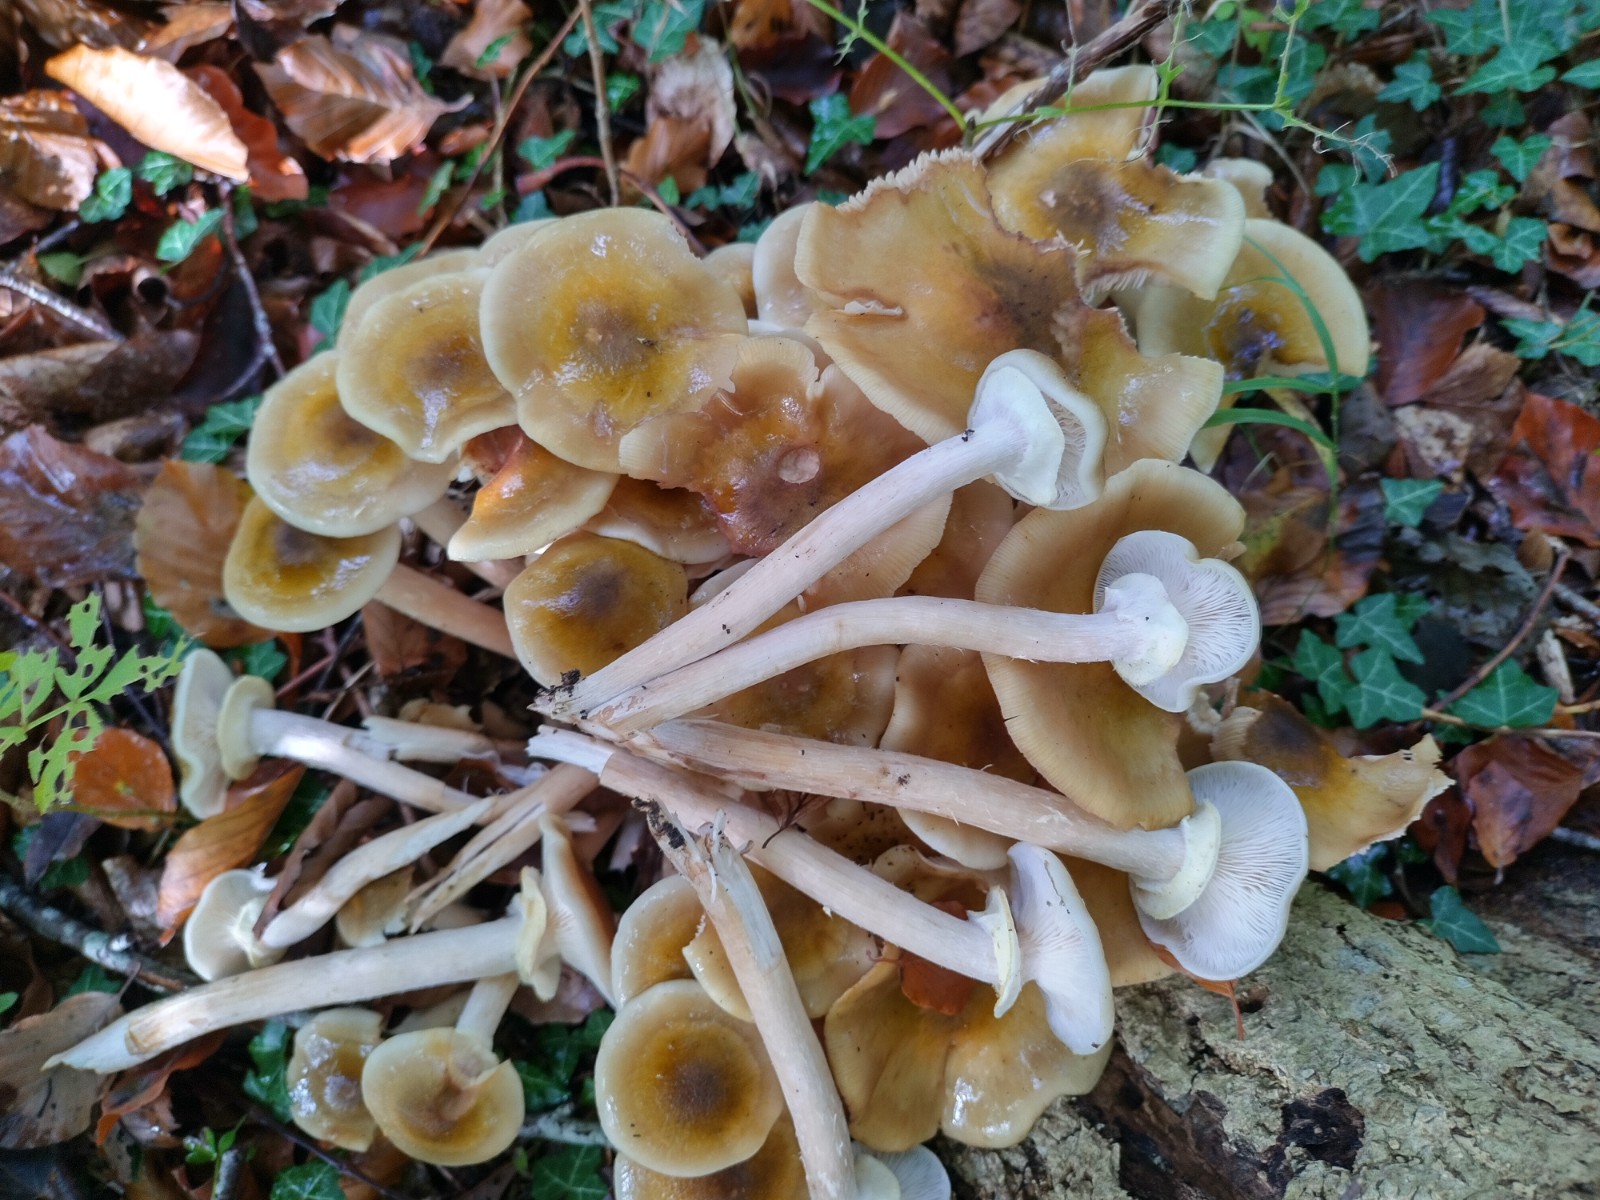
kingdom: Fungi
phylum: Basidiomycota
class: Agaricomycetes
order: Agaricales
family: Physalacriaceae
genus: Armillaria
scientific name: Armillaria mellea
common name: ægte honningsvamp
